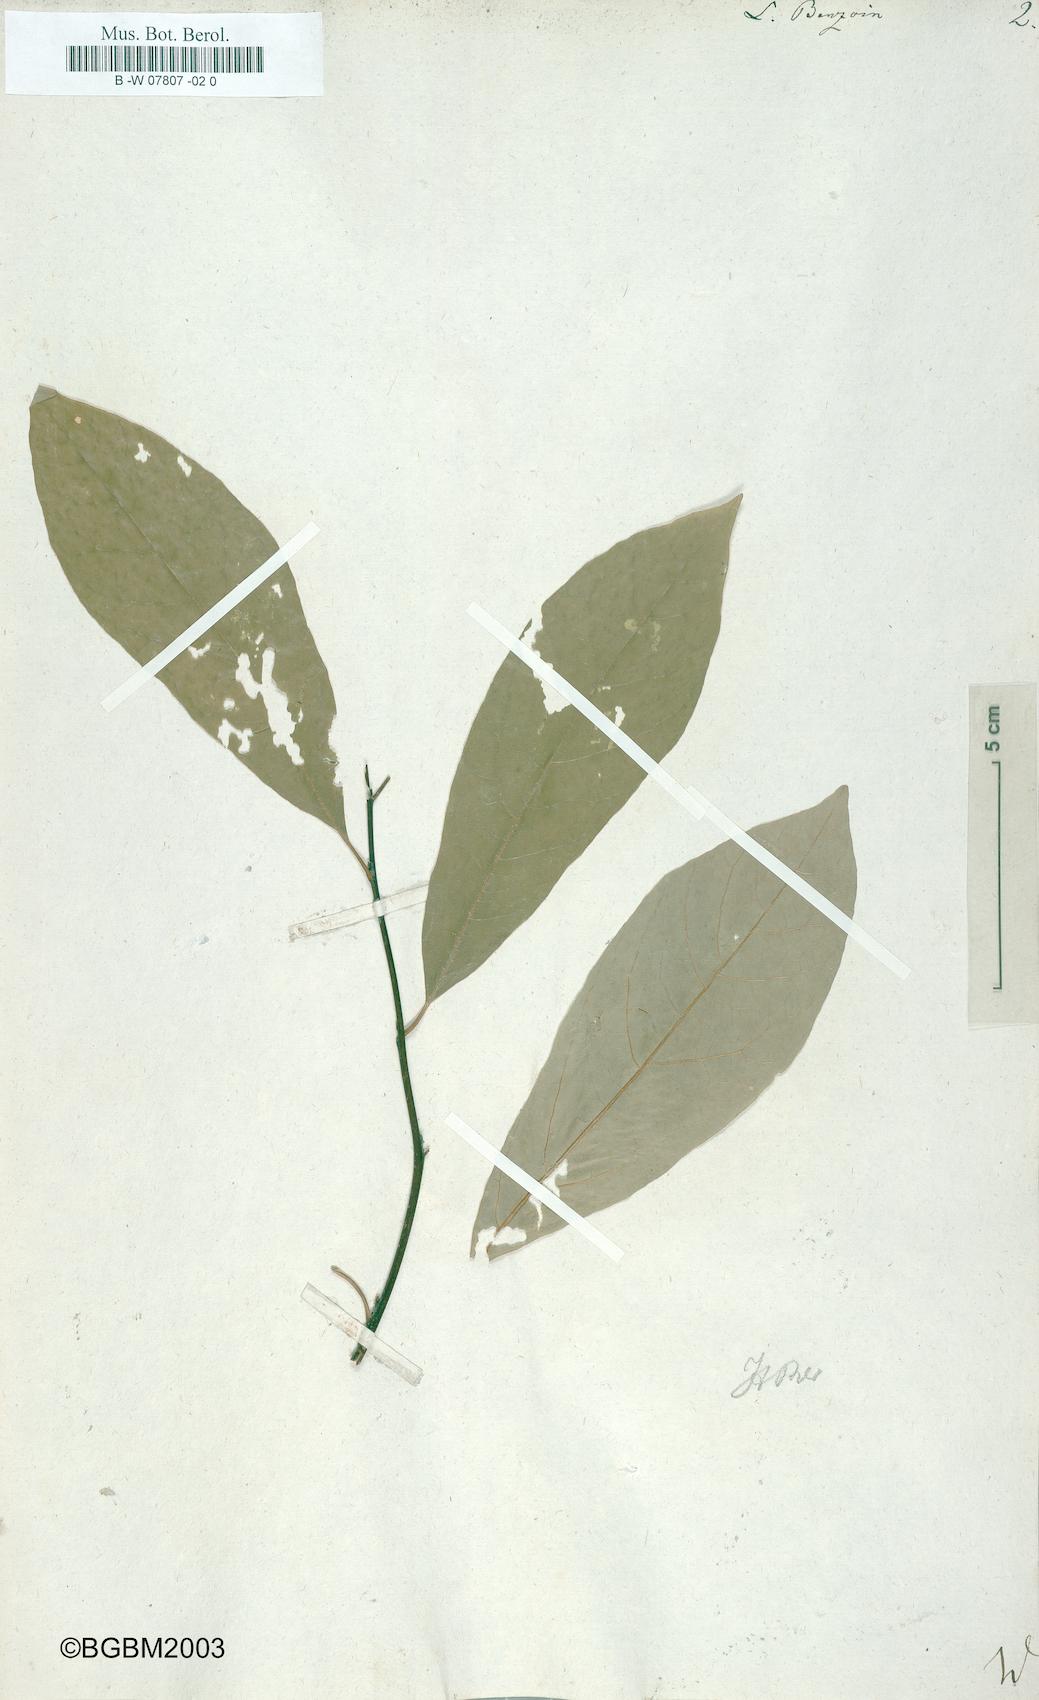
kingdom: Plantae
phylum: Tracheophyta
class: Magnoliopsida
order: Laurales
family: Lauraceae
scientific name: Lauraceae
